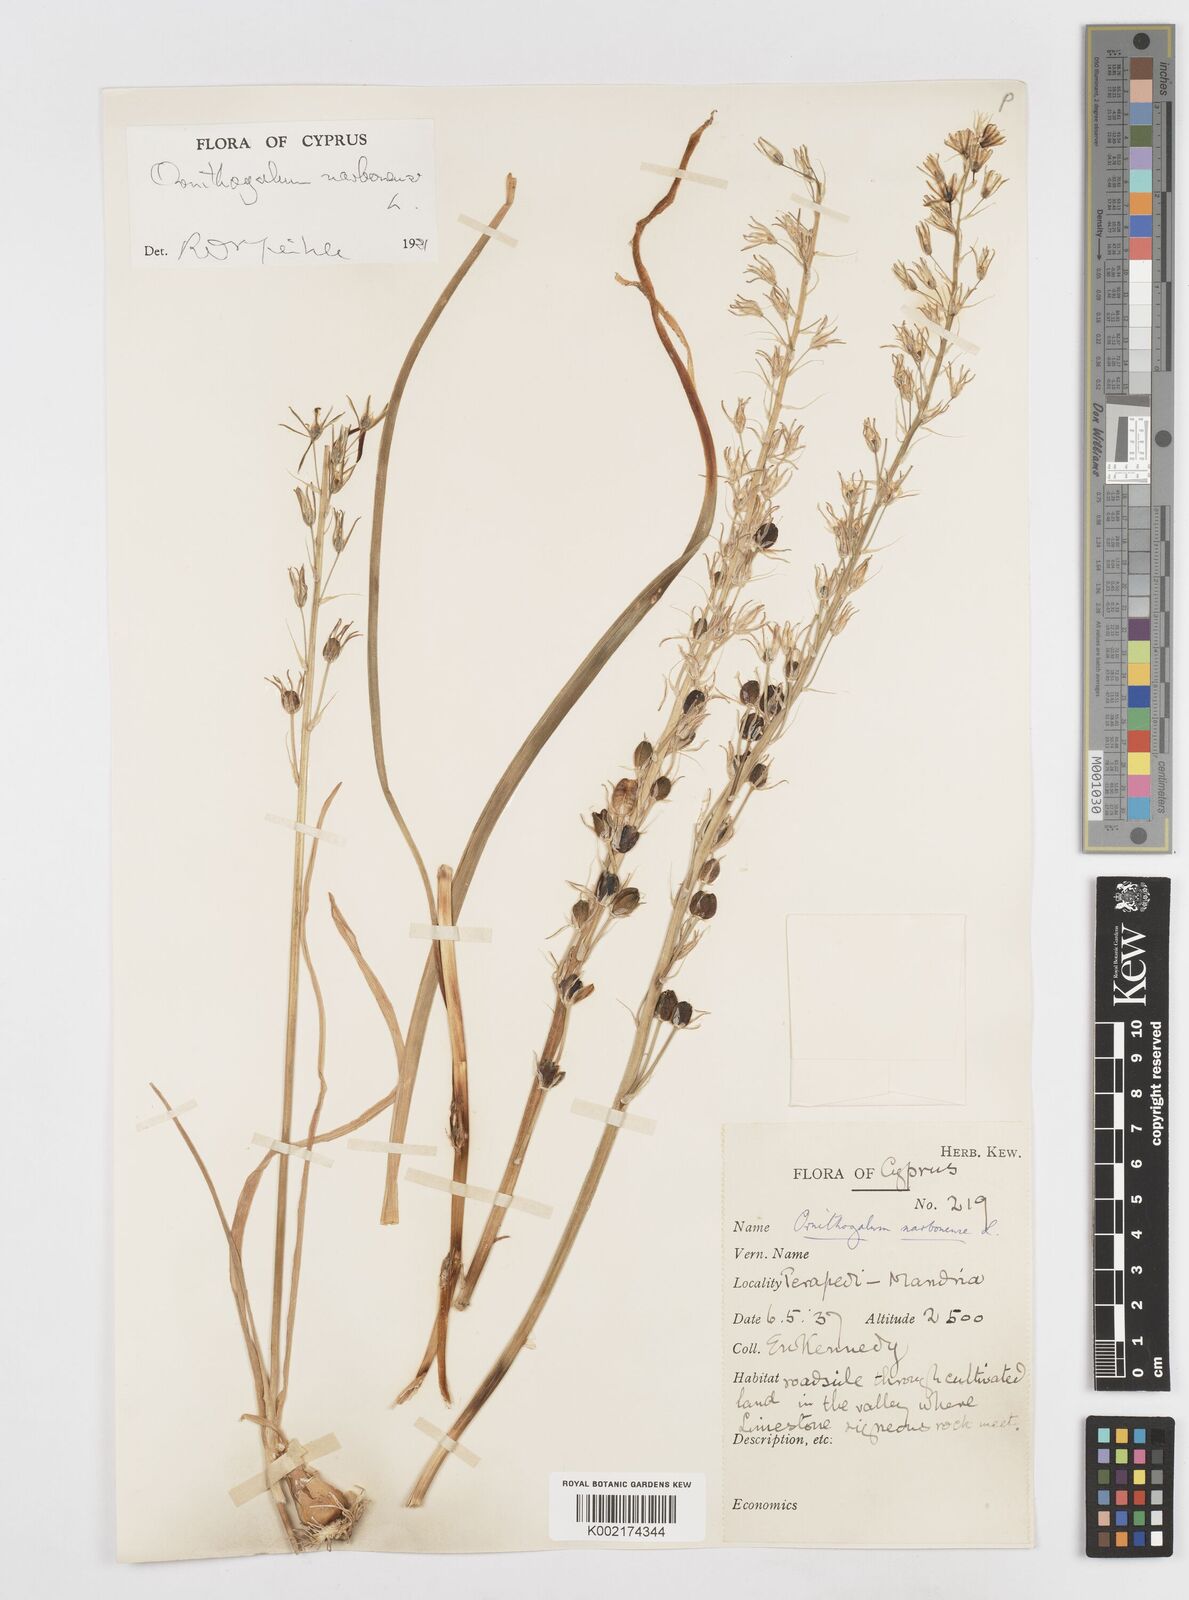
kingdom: Plantae
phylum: Tracheophyta
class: Liliopsida
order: Asparagales
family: Asparagaceae
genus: Ornithogalum
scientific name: Ornithogalum narbonense
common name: Bath-asparagus
